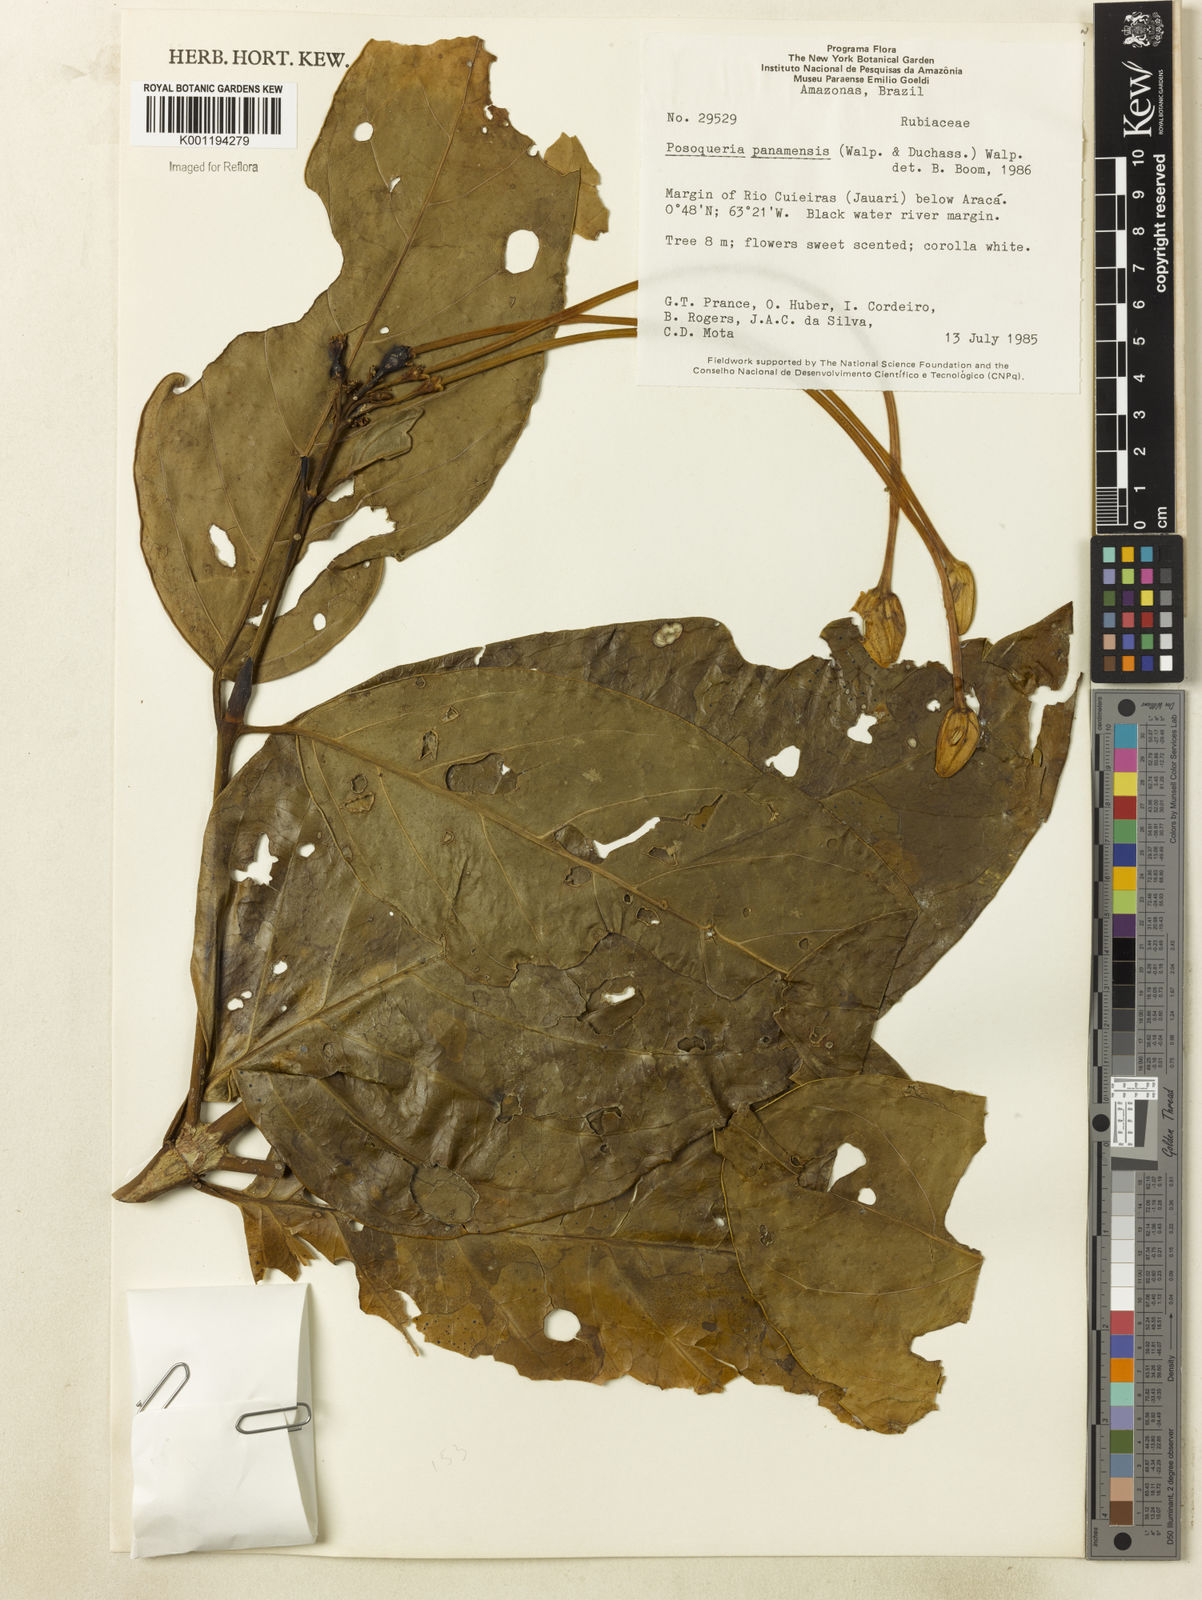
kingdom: Plantae
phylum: Tracheophyta
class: Magnoliopsida
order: Gentianales
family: Rubiaceae
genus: Posoqueria
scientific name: Posoqueria latifolia
